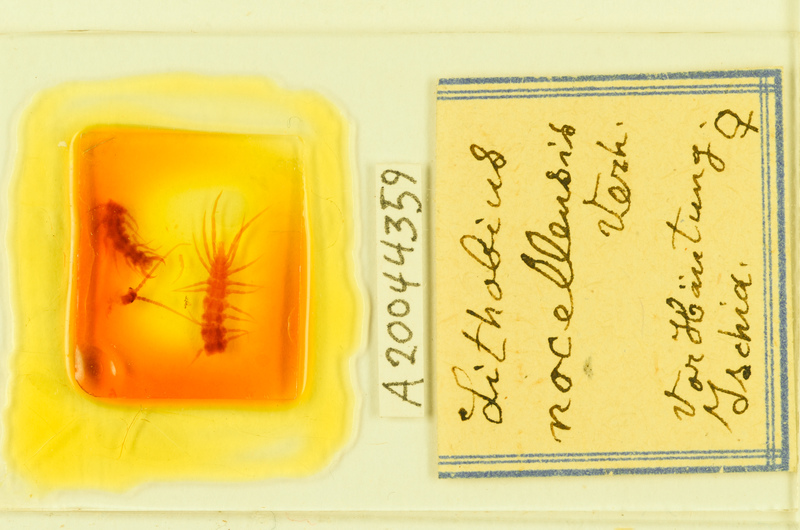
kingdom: Animalia
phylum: Arthropoda
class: Chilopoda
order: Lithobiomorpha
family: Lithobiidae
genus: Lithobius
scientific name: Lithobius nocellensis
